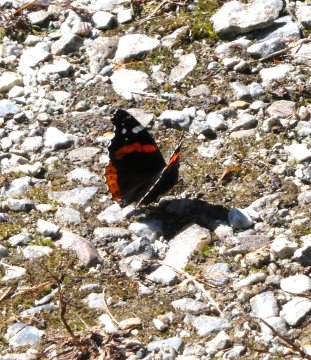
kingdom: Animalia
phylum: Arthropoda
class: Insecta
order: Lepidoptera
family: Nymphalidae
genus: Vanessa
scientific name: Vanessa atalanta
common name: Red Admiral
